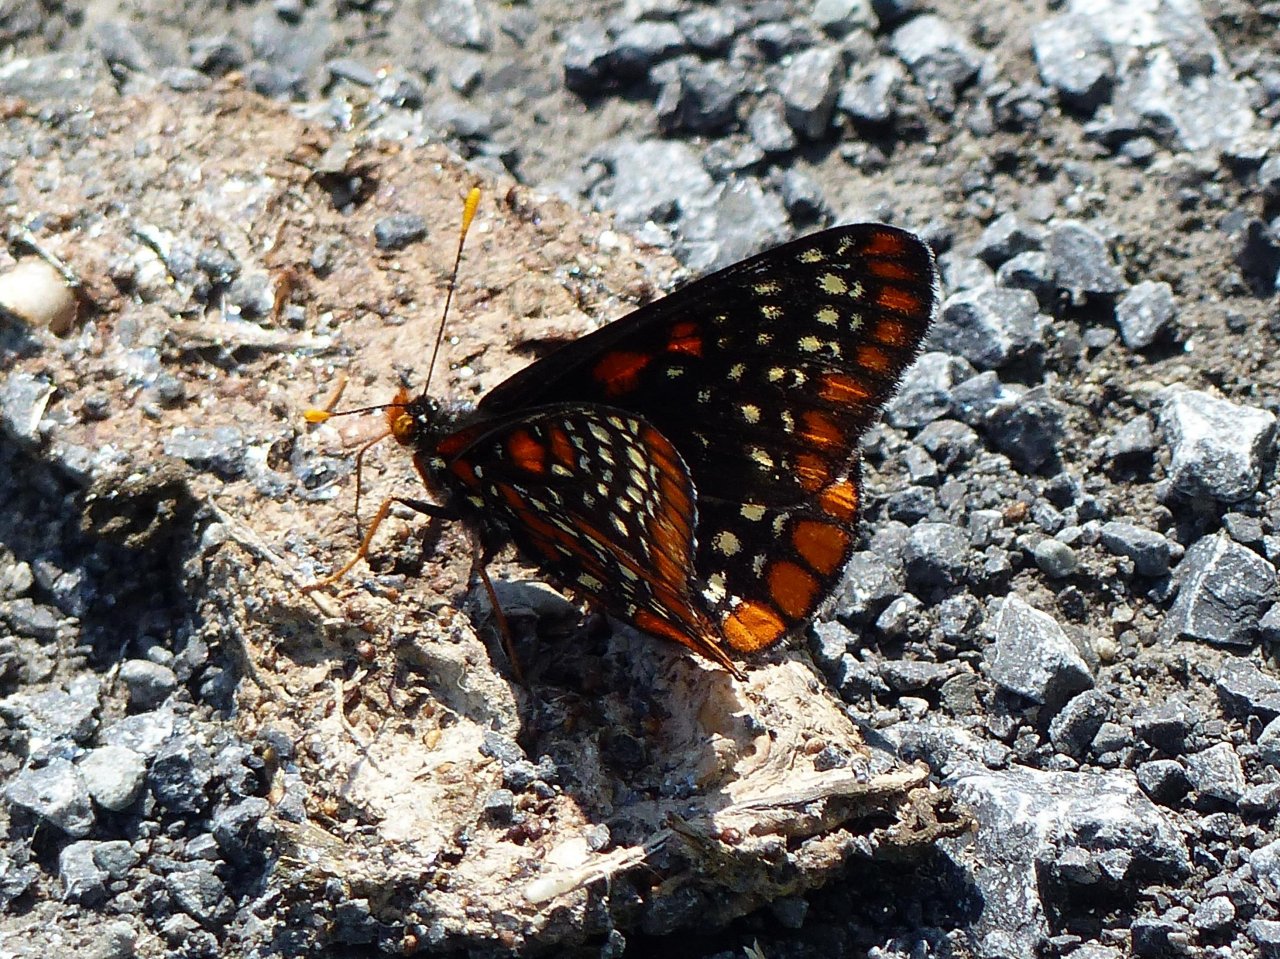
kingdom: Animalia
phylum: Arthropoda
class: Insecta
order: Lepidoptera
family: Nymphalidae
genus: Euphydryas
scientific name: Euphydryas phaeton
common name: Baltimore Checkerspot
